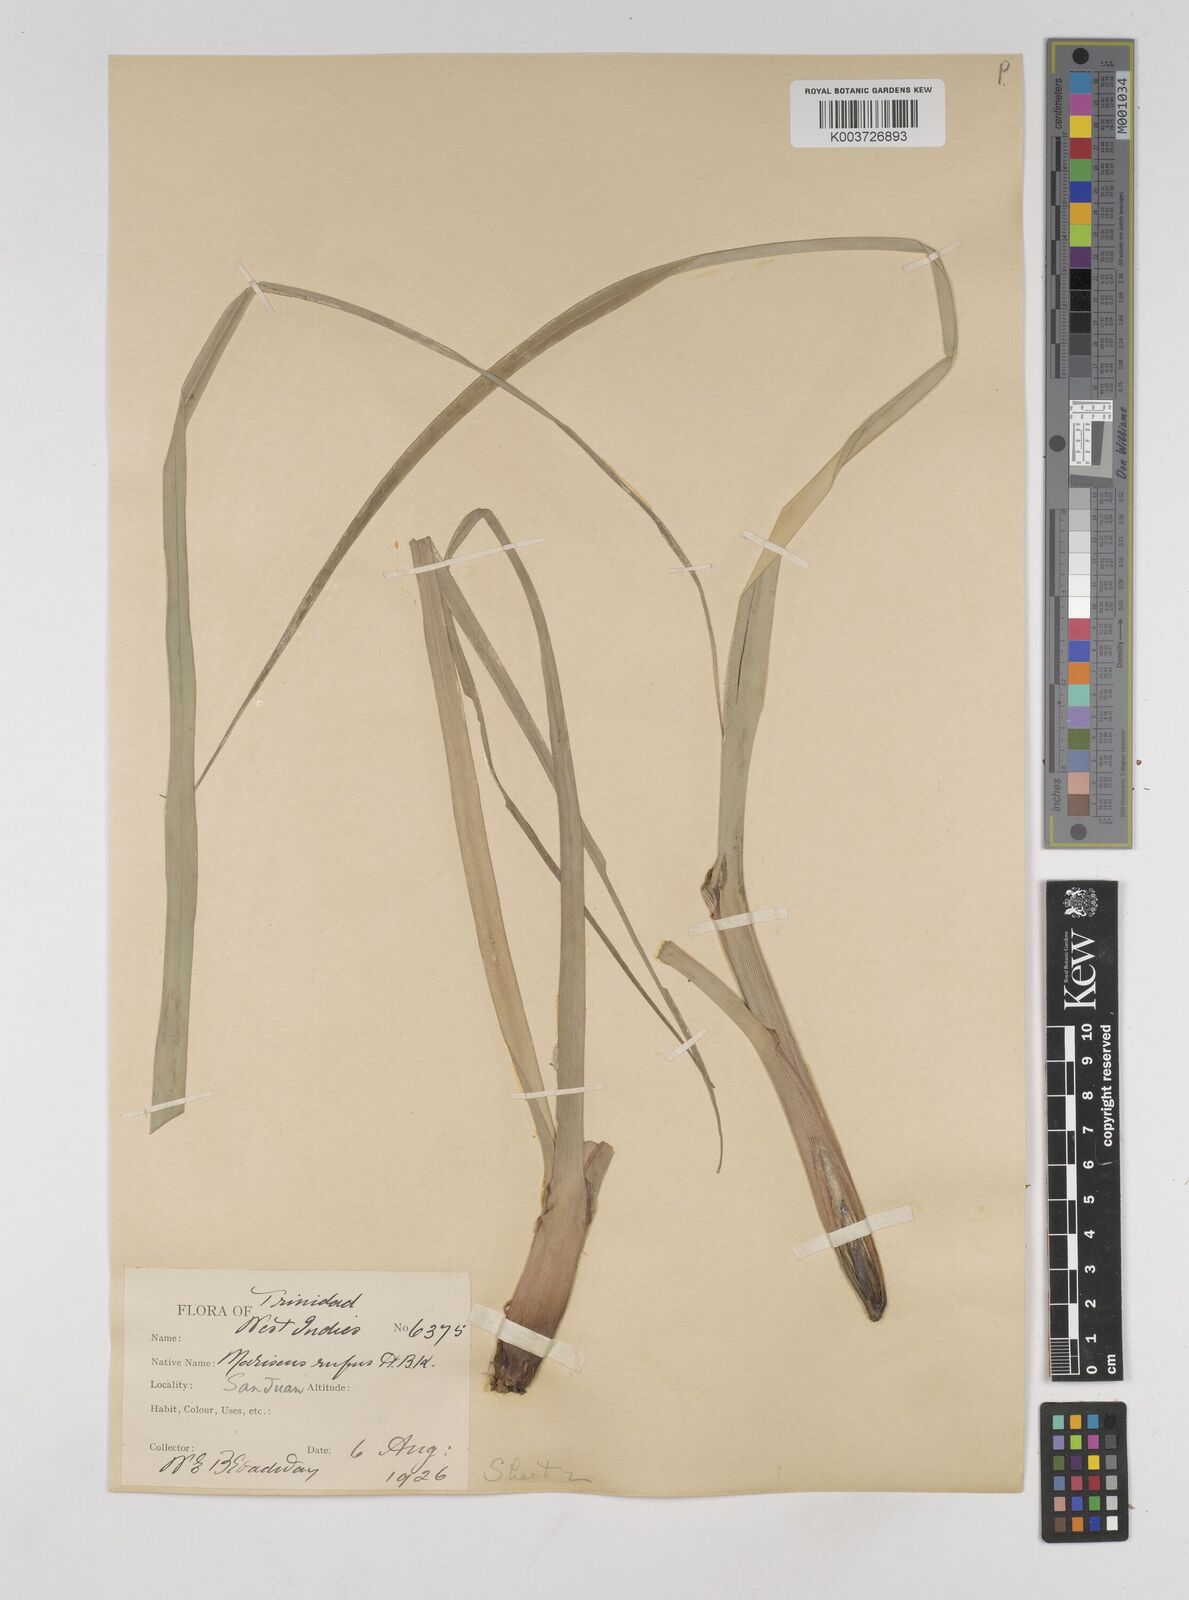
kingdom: Plantae
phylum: Tracheophyta
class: Liliopsida
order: Poales
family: Cyperaceae
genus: Cyperus
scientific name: Cyperus ligularis
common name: Swamp flat sedge
